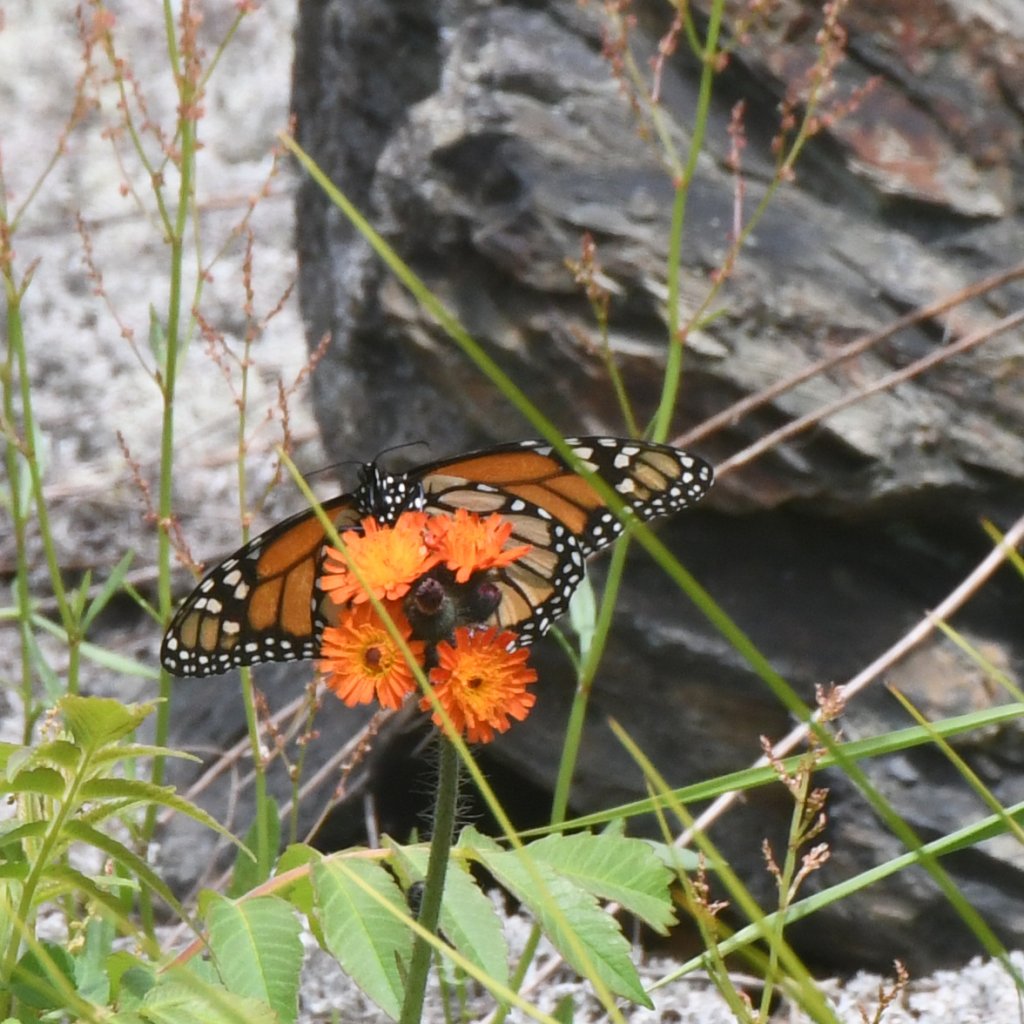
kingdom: Animalia
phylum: Arthropoda
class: Insecta
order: Lepidoptera
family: Nymphalidae
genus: Danaus
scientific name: Danaus plexippus
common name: Monarch
